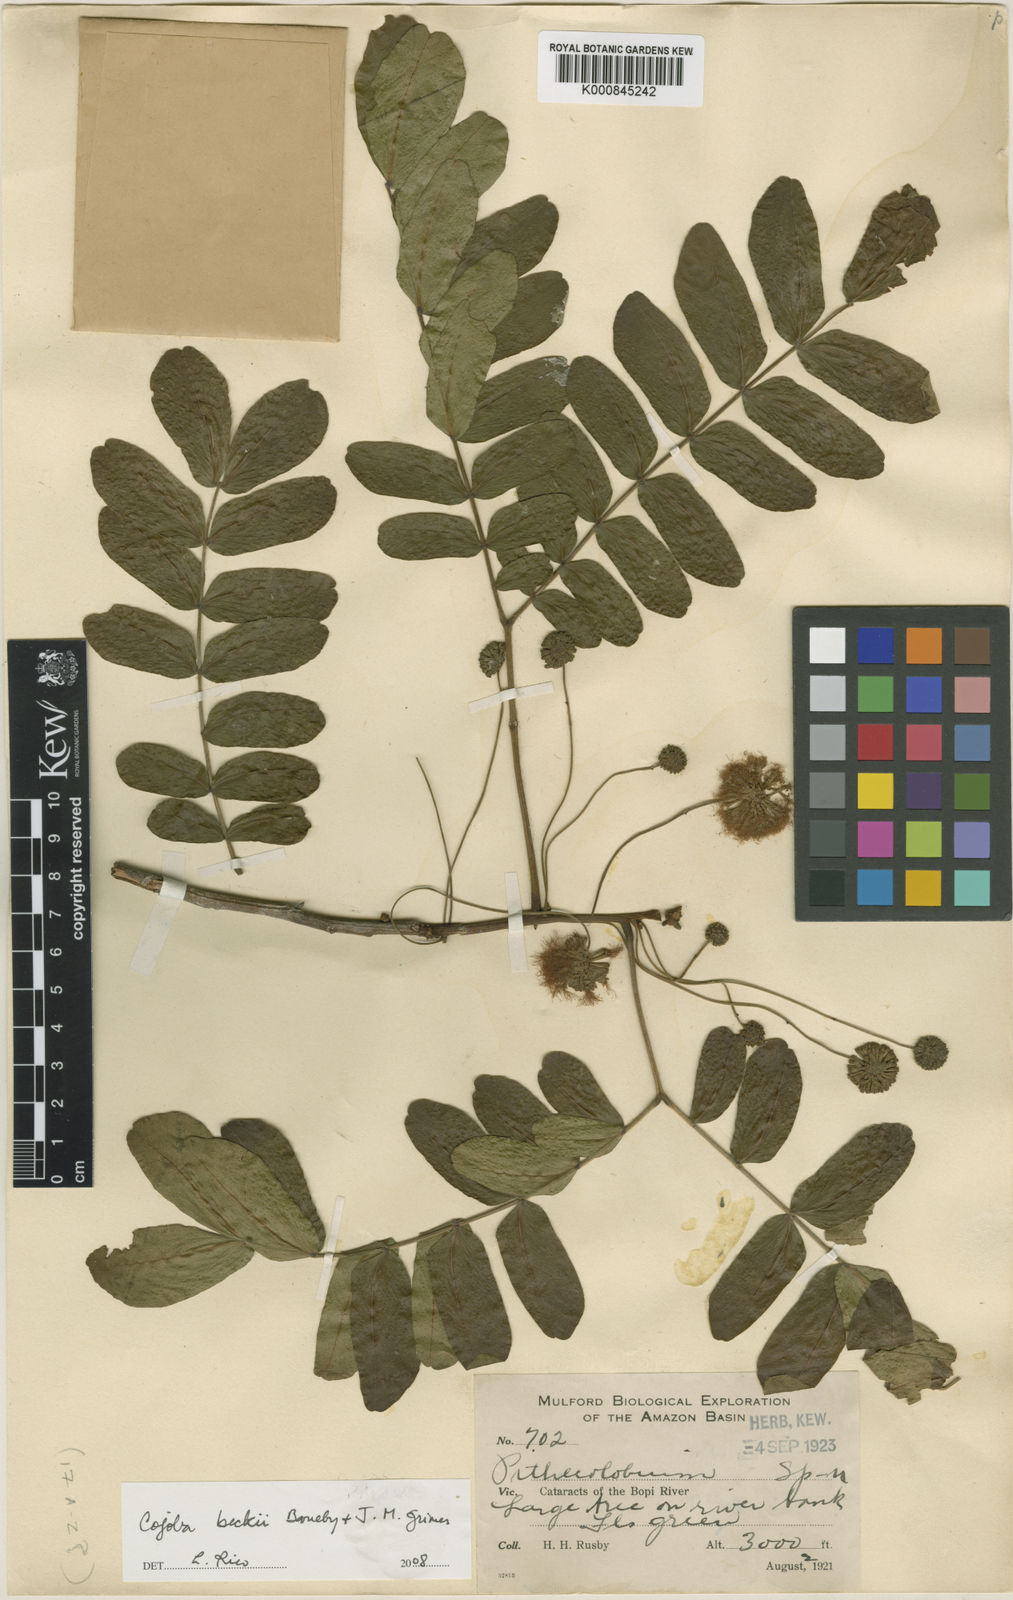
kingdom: Plantae
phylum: Tracheophyta
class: Magnoliopsida
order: Fabales
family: Fabaceae
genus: Cojoba
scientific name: Cojoba beckii
